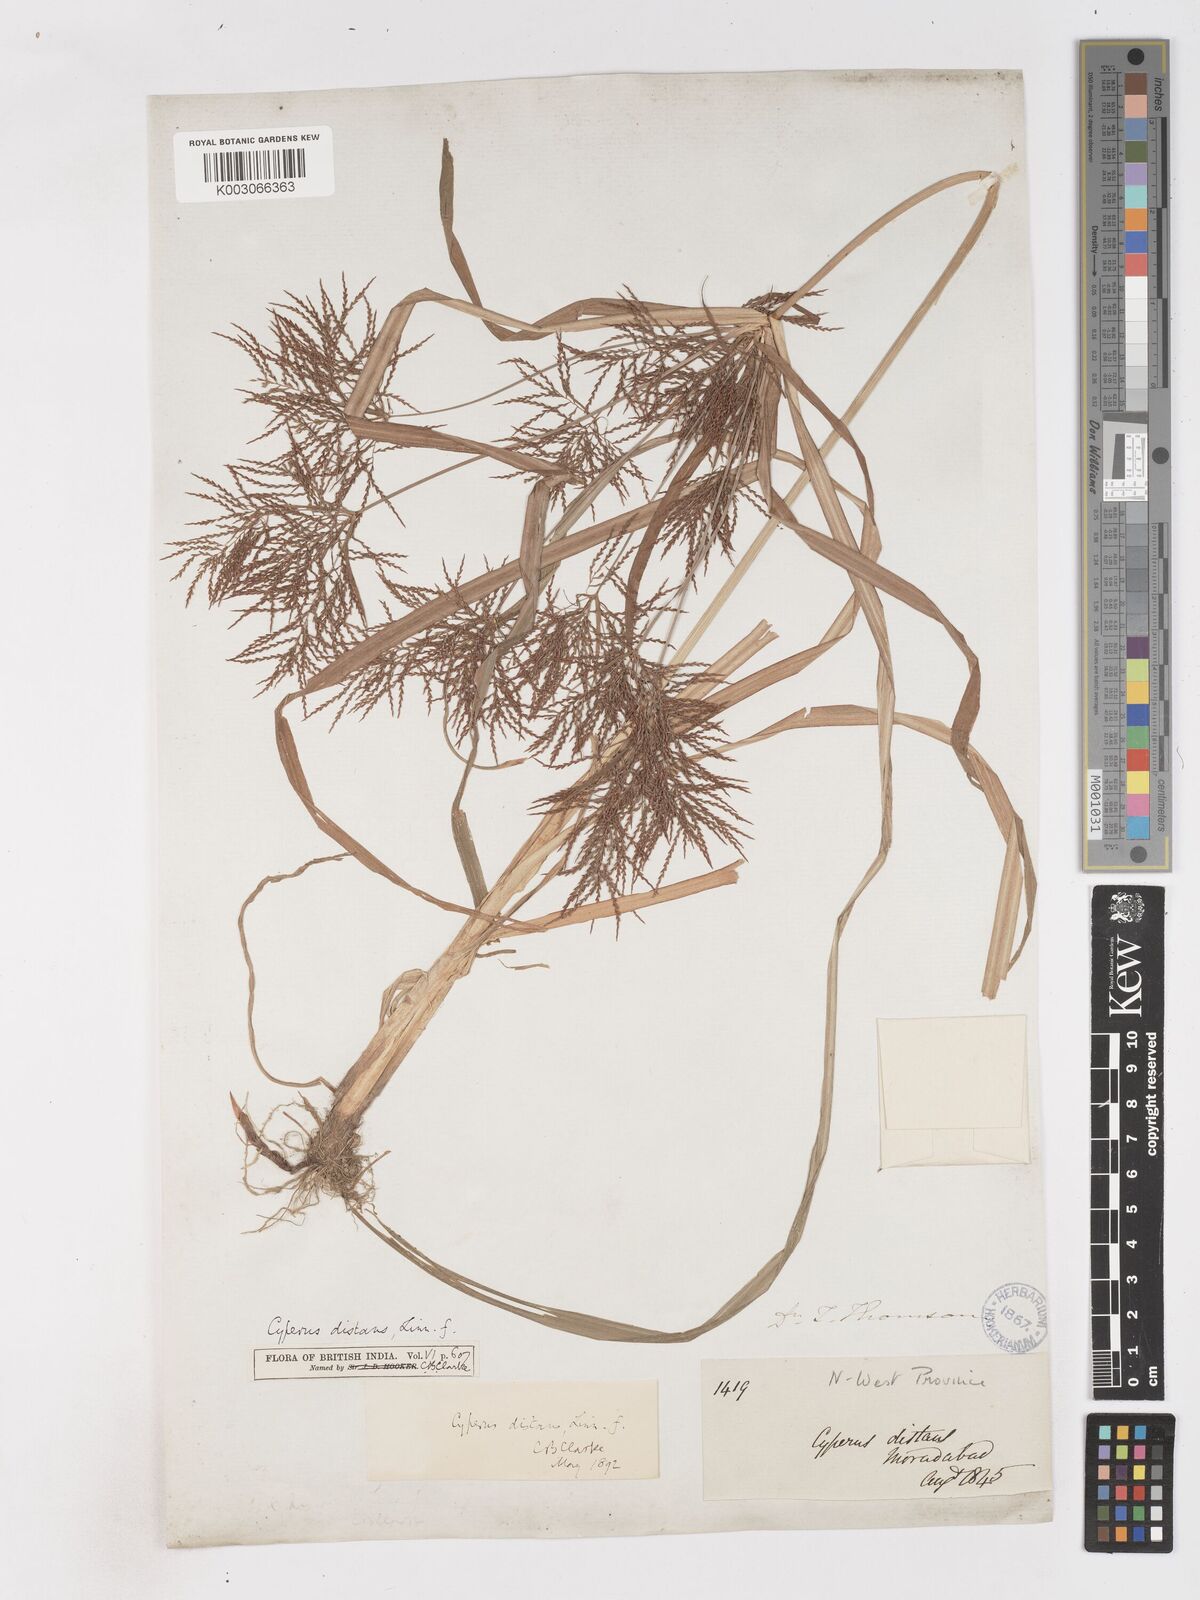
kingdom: Plantae
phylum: Tracheophyta
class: Liliopsida
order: Poales
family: Cyperaceae
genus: Cyperus
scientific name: Cyperus distans
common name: Slender cyperus
